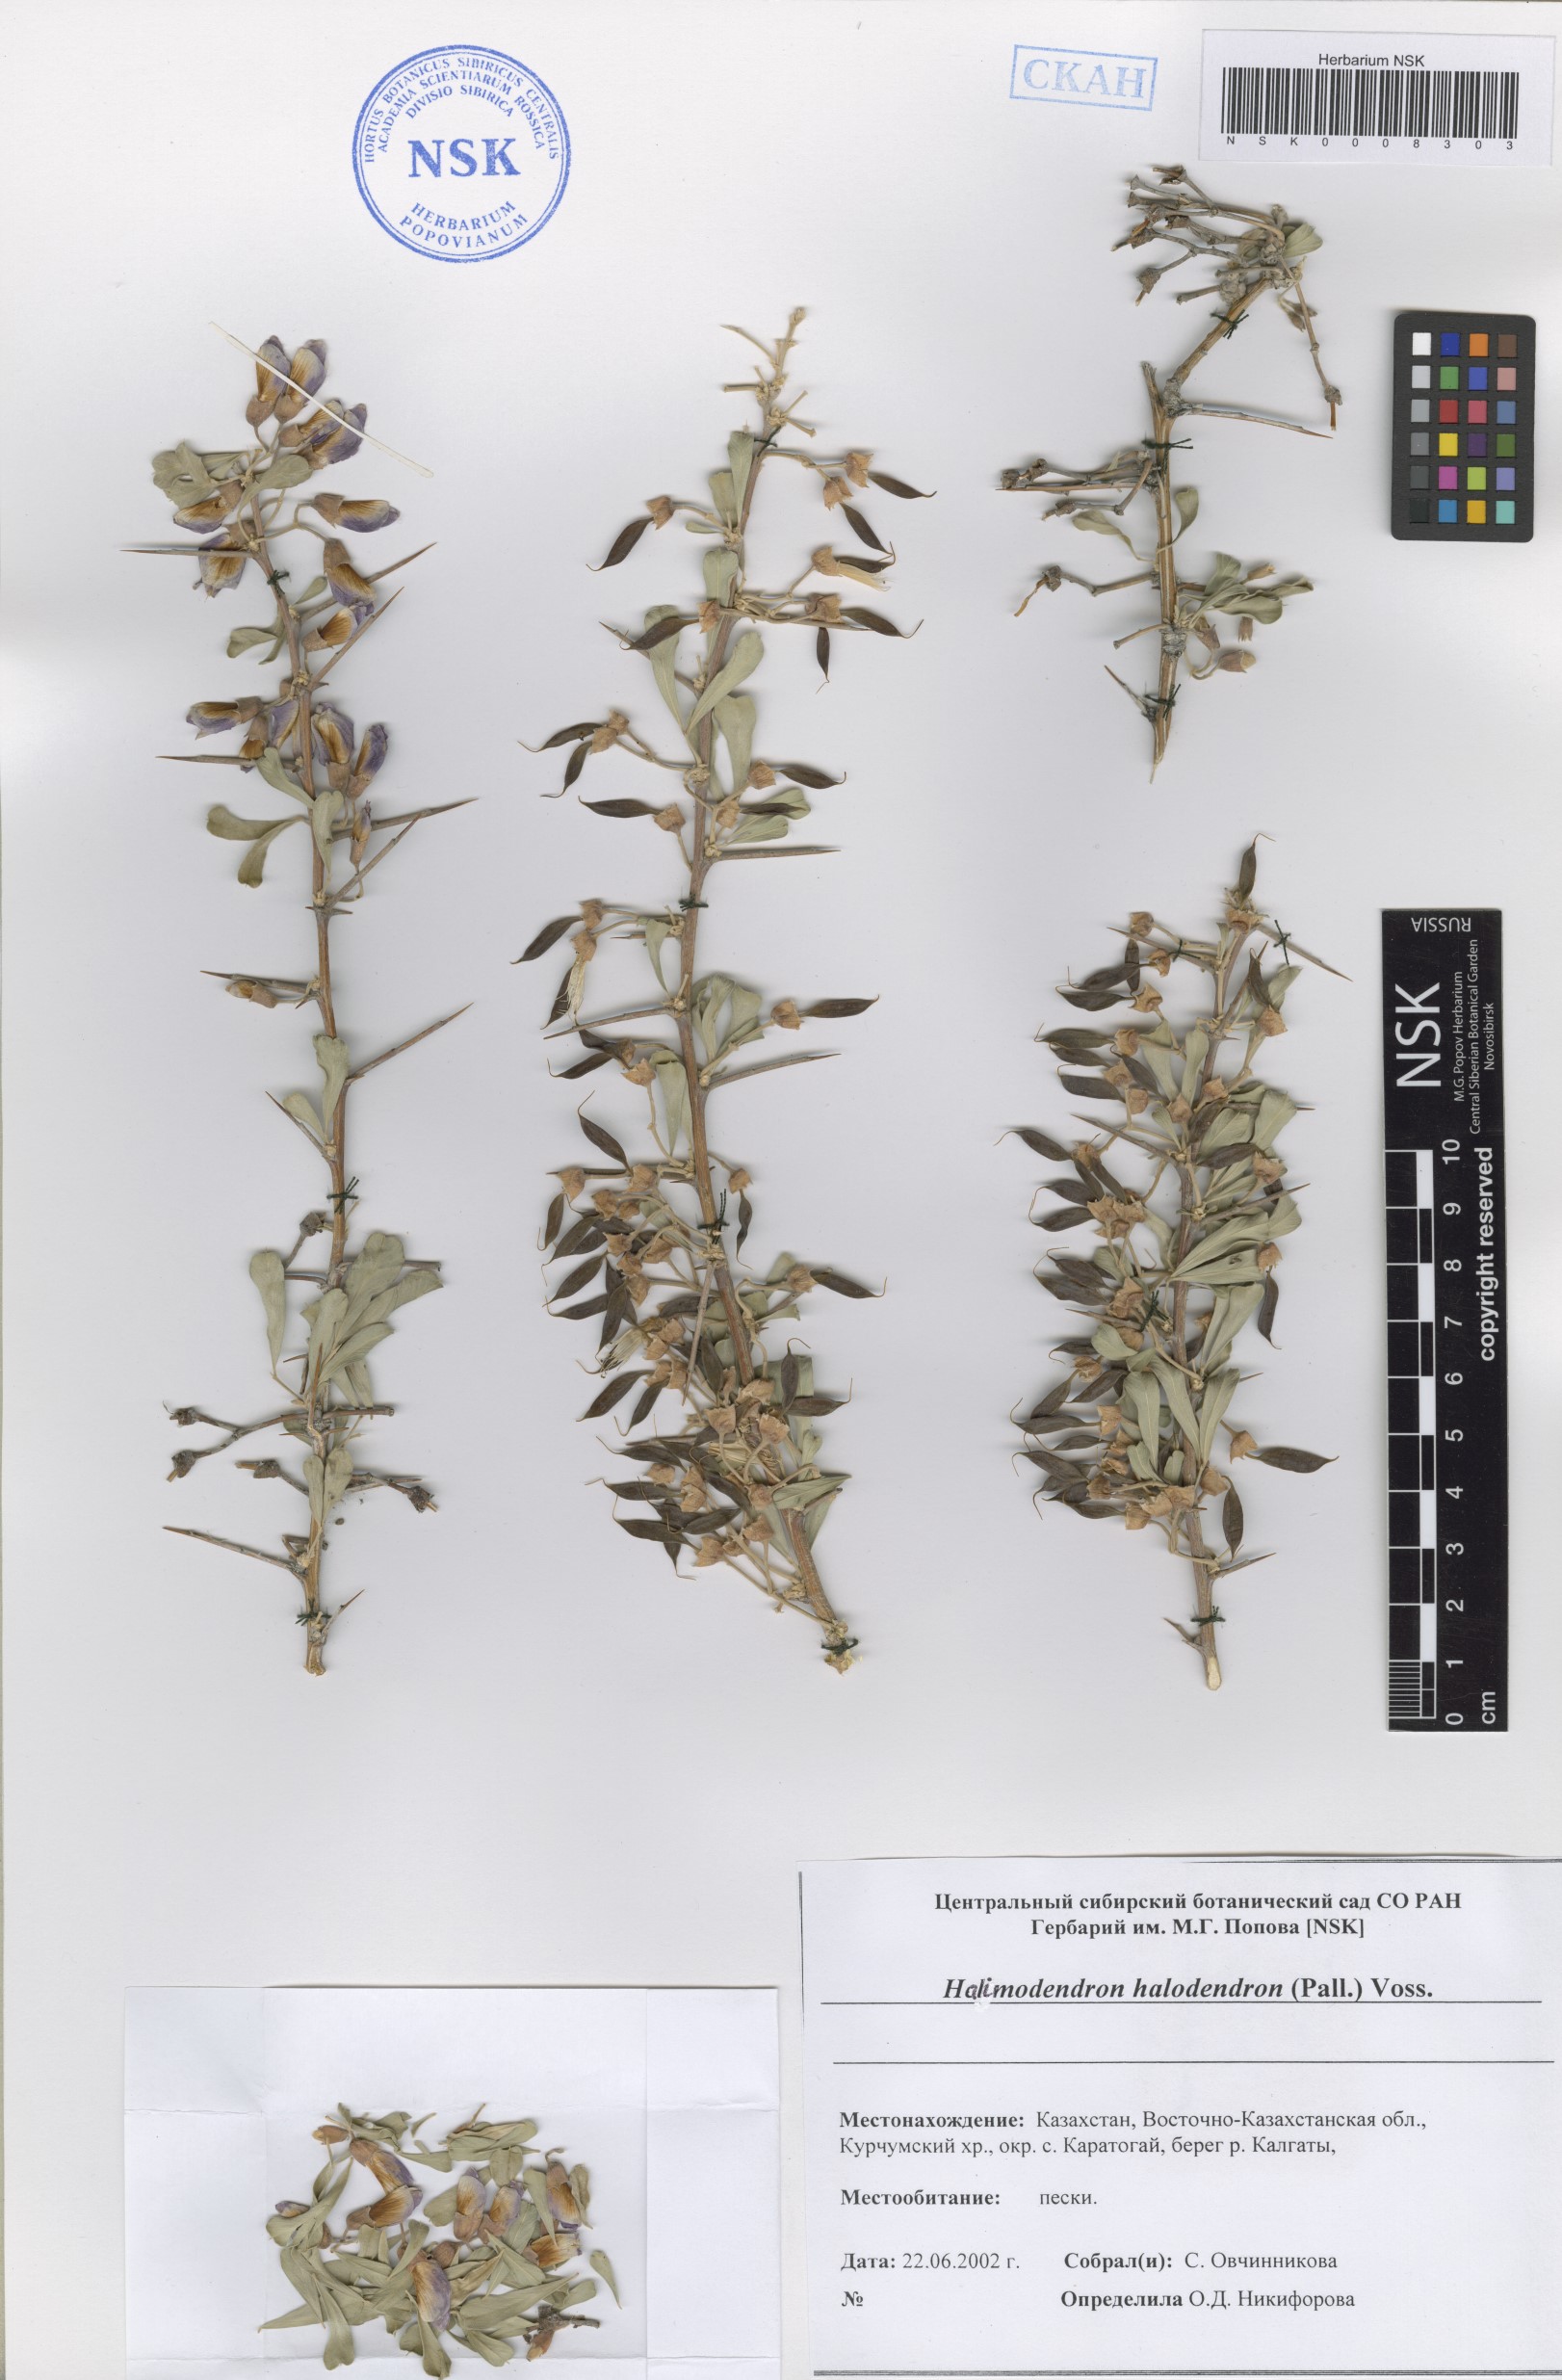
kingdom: Plantae
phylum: Tracheophyta
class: Magnoliopsida
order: Fabales
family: Fabaceae
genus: Caragana
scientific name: Caragana halodendron
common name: Siberian salt-tree
